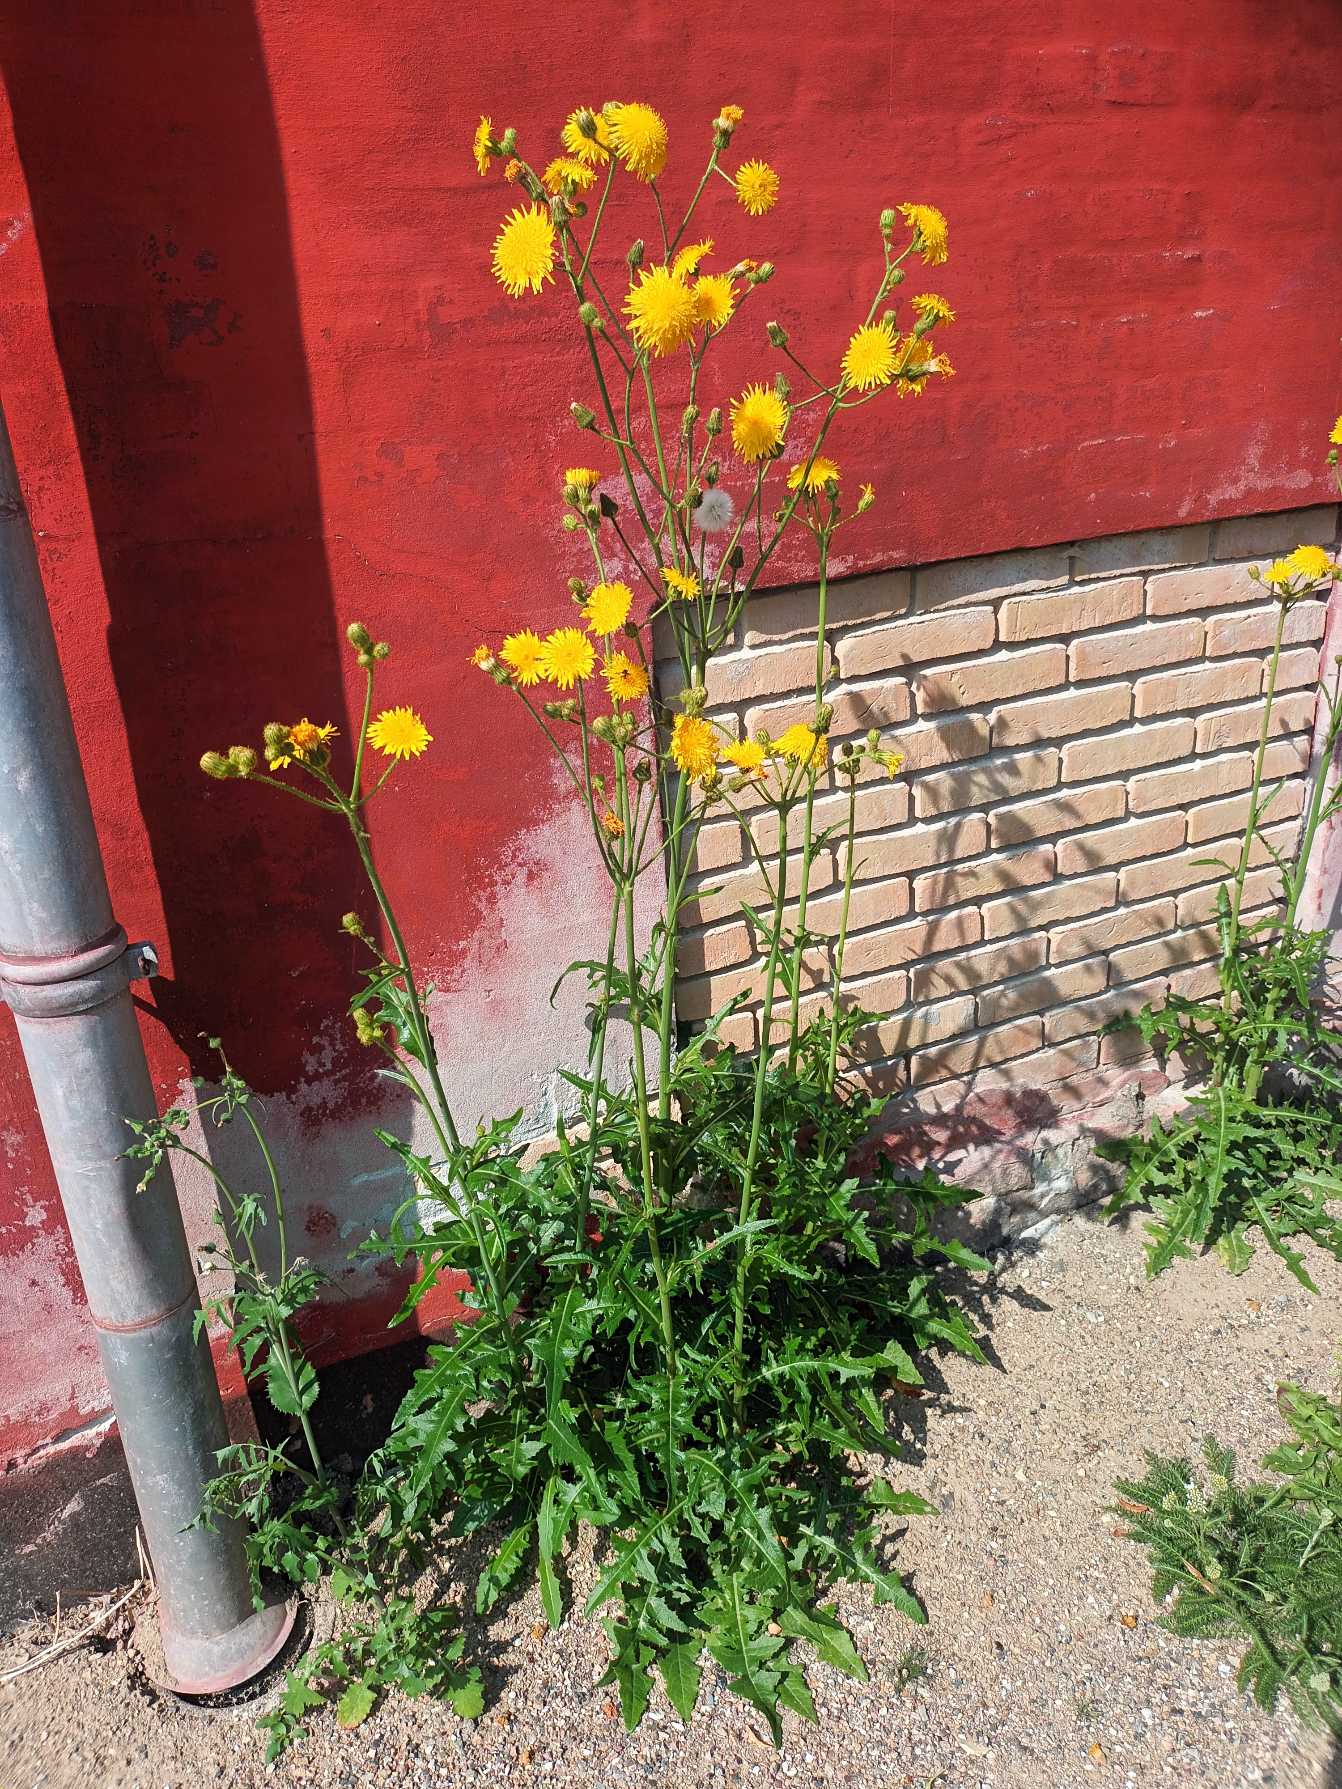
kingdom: Plantae
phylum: Tracheophyta
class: Magnoliopsida
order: Asterales
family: Asteraceae
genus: Sonchus
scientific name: Sonchus arvensis
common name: Ager-svinemælk
